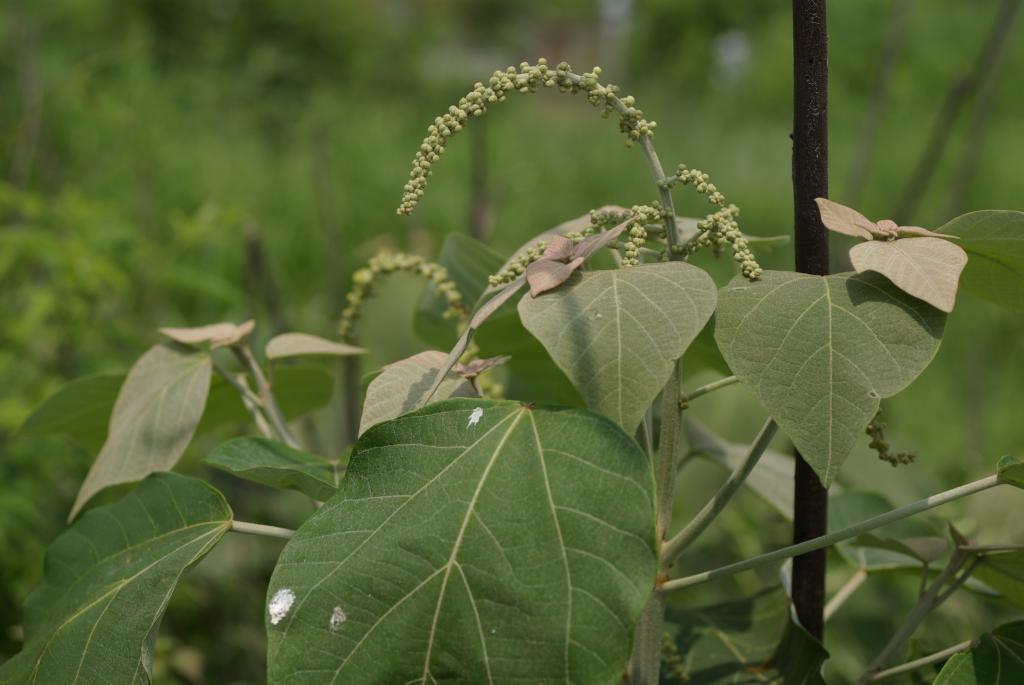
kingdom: Plantae
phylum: Tracheophyta
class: Magnoliopsida
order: Malpighiales
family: Euphorbiaceae
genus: Mallotus
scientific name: Mallotus japonicus
